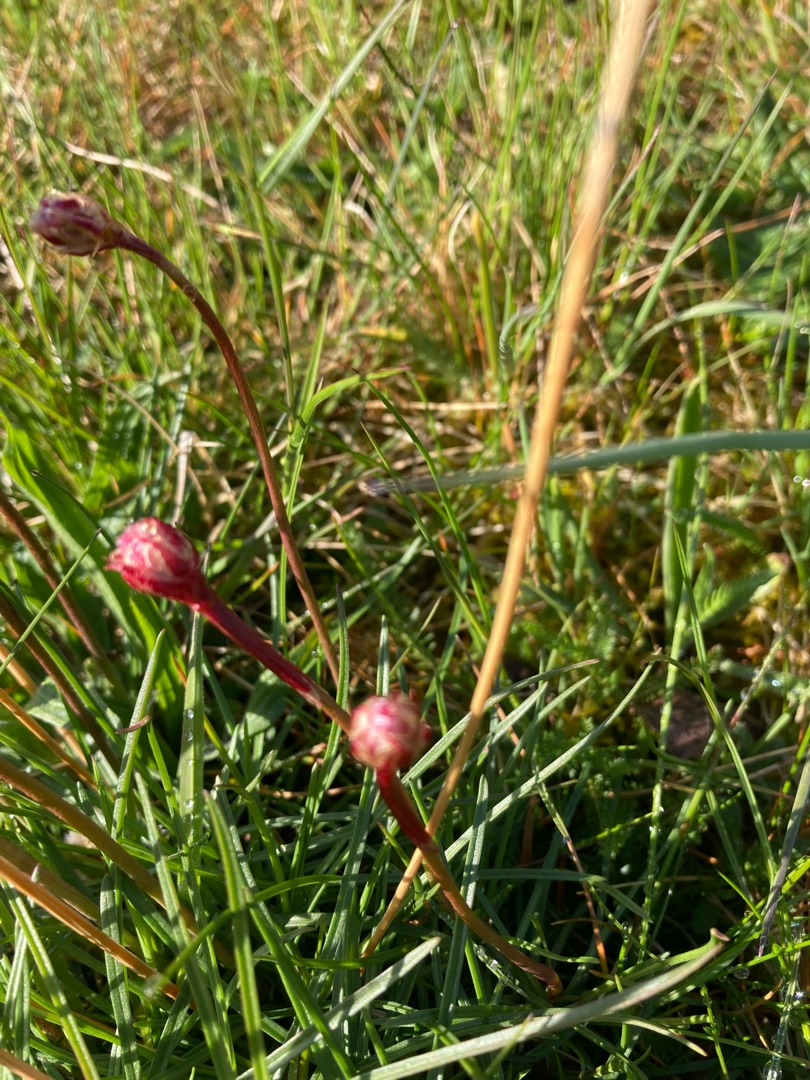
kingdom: Plantae
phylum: Tracheophyta
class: Magnoliopsida
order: Caryophyllales
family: Plumbaginaceae
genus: Armeria
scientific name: Armeria maritima
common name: Engelskgræs
